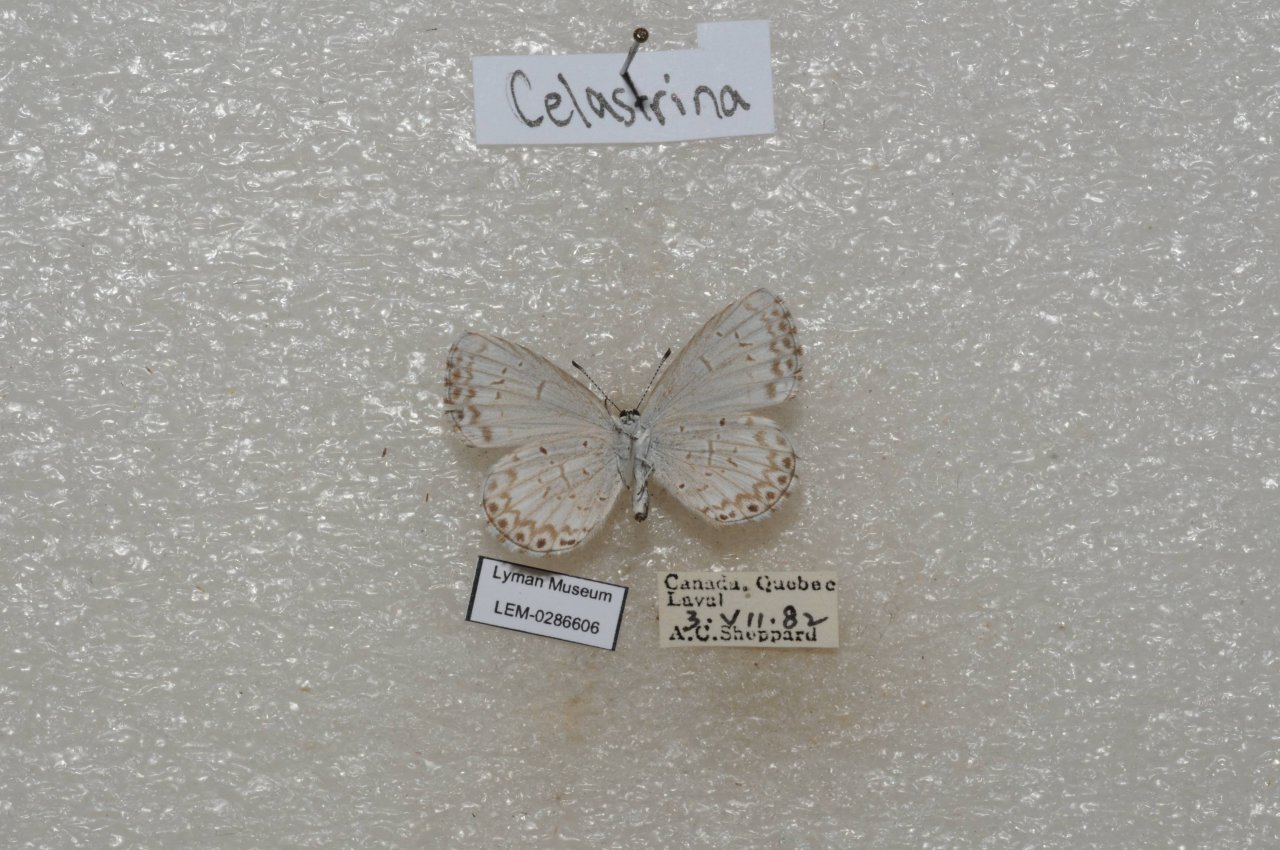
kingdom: Animalia
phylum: Arthropoda
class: Insecta
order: Lepidoptera
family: Lycaenidae
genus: Celastrina
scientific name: Celastrina lucia
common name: Northern Spring Azure
